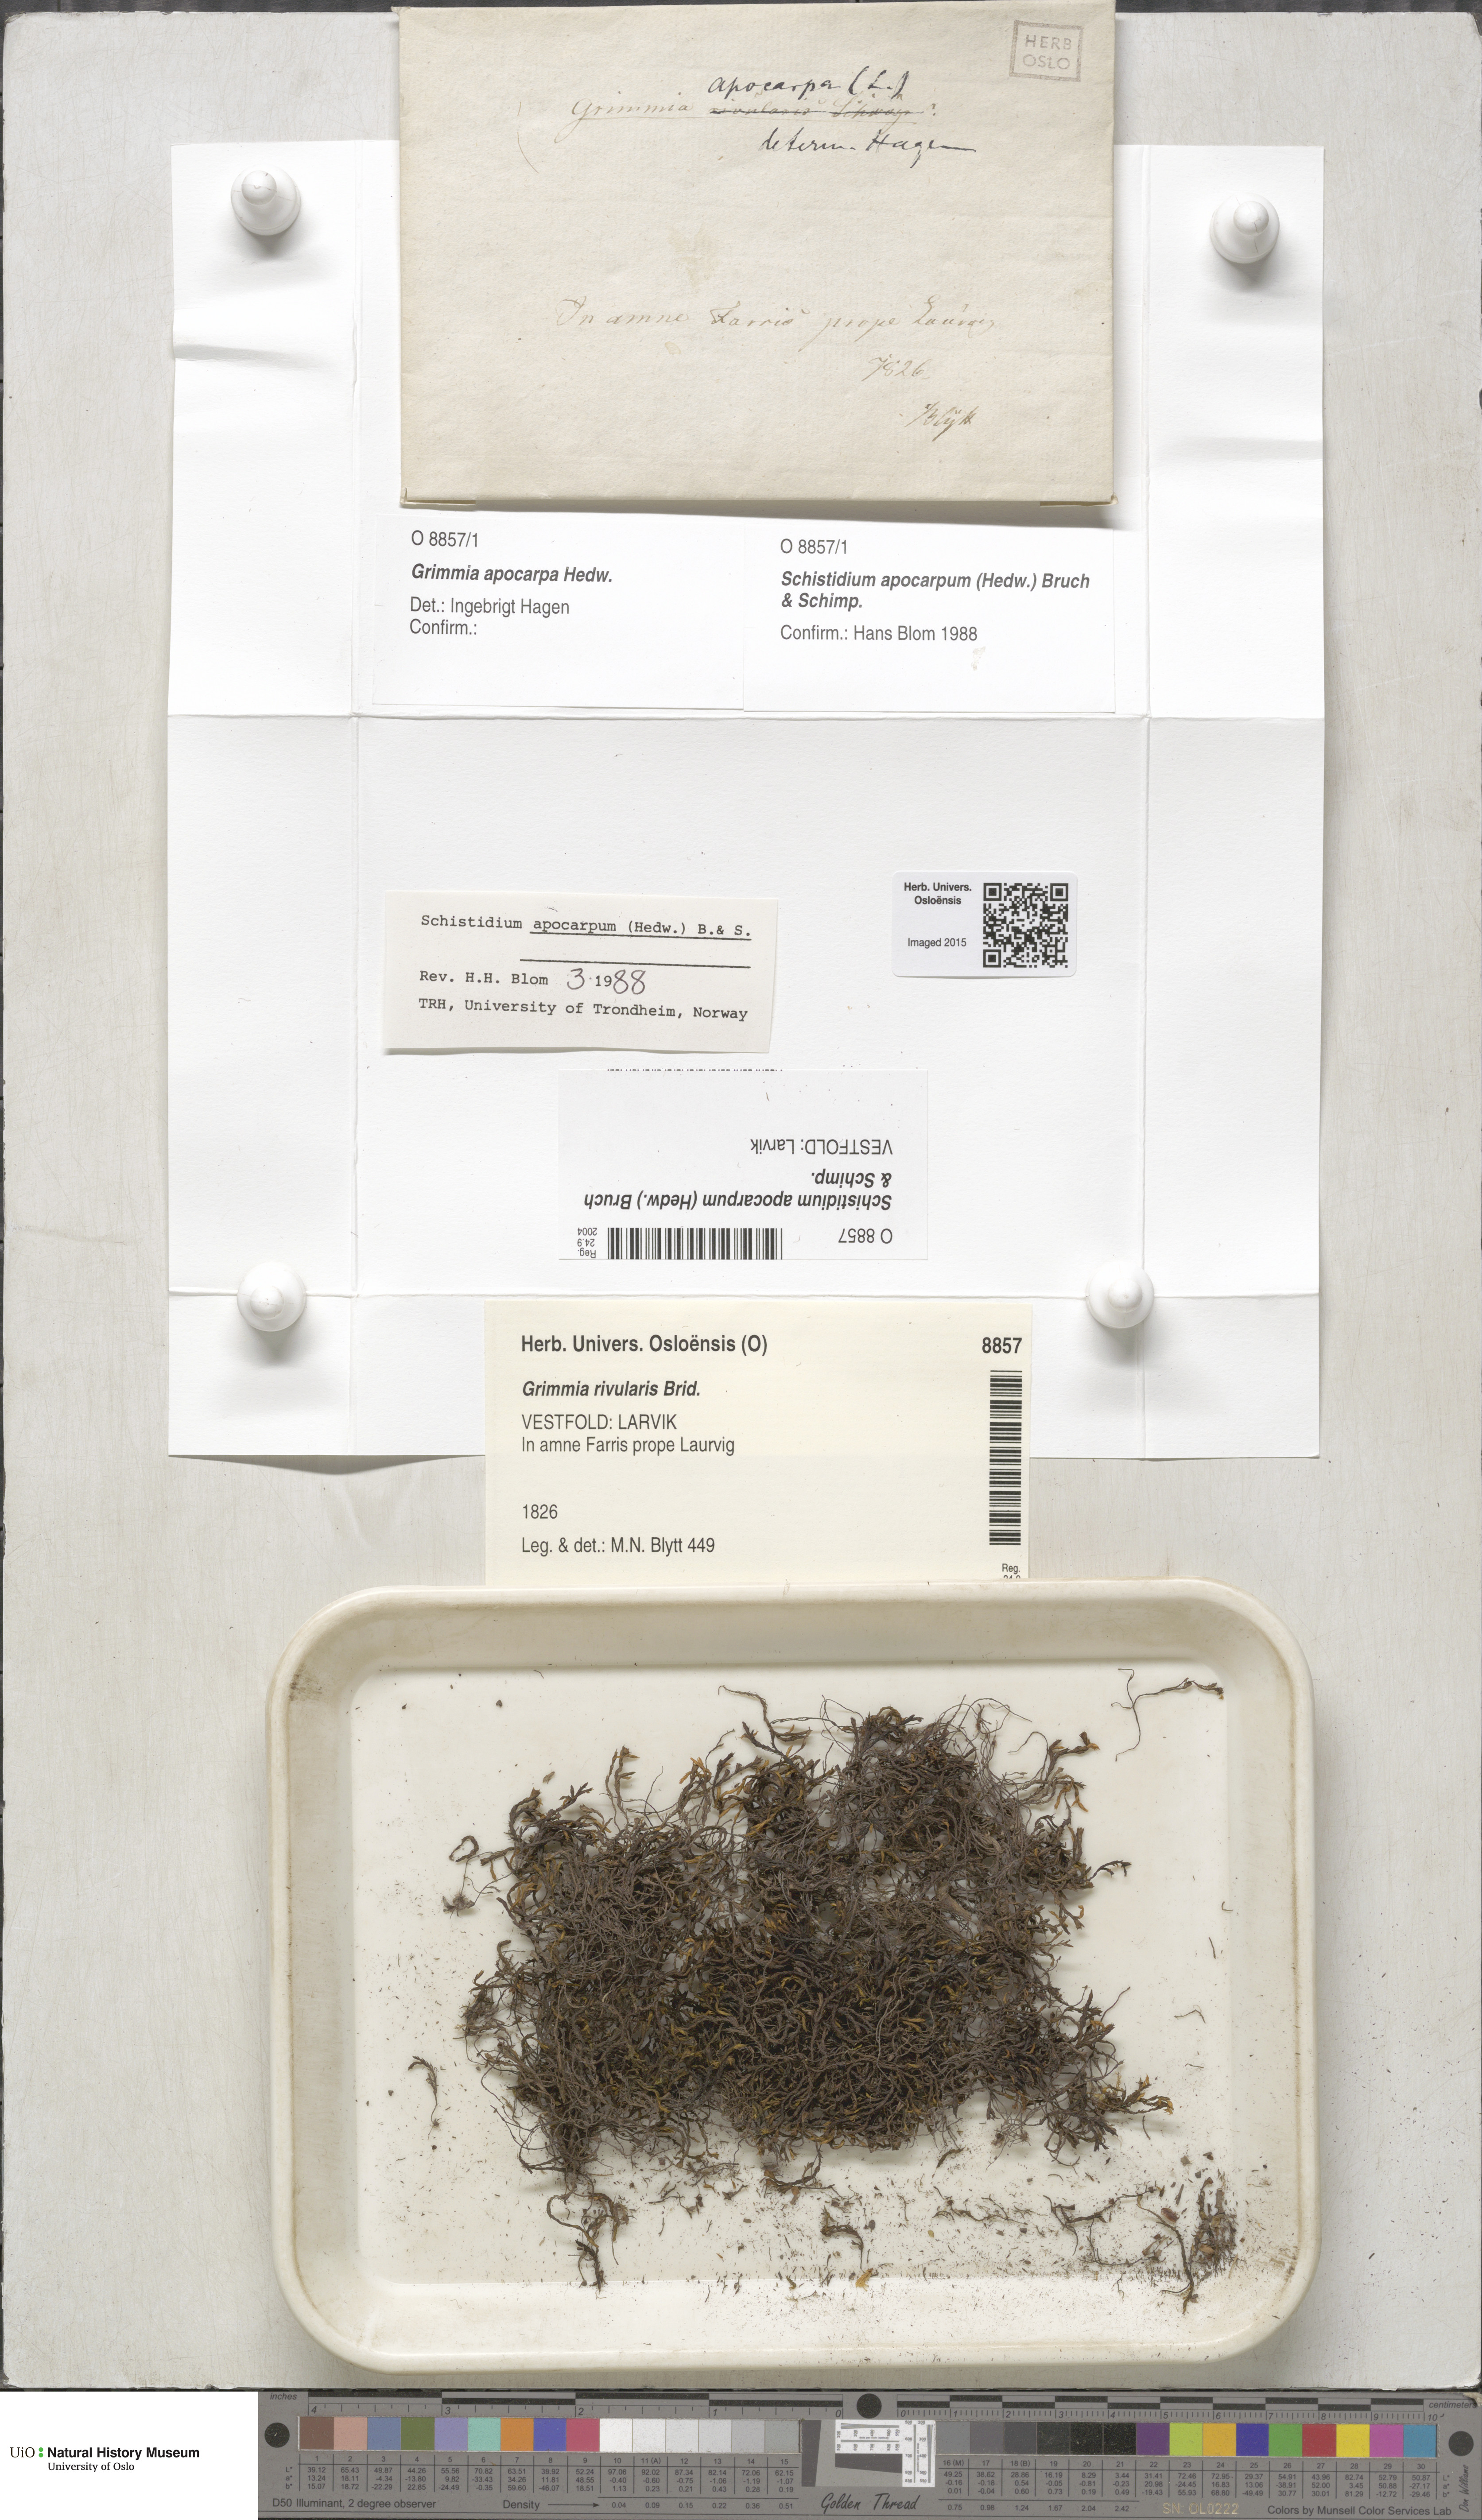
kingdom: Plantae
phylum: Bryophyta
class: Bryopsida
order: Grimmiales
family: Grimmiaceae
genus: Schistidium
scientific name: Schistidium apocarpum
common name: Radiate bloom moss
